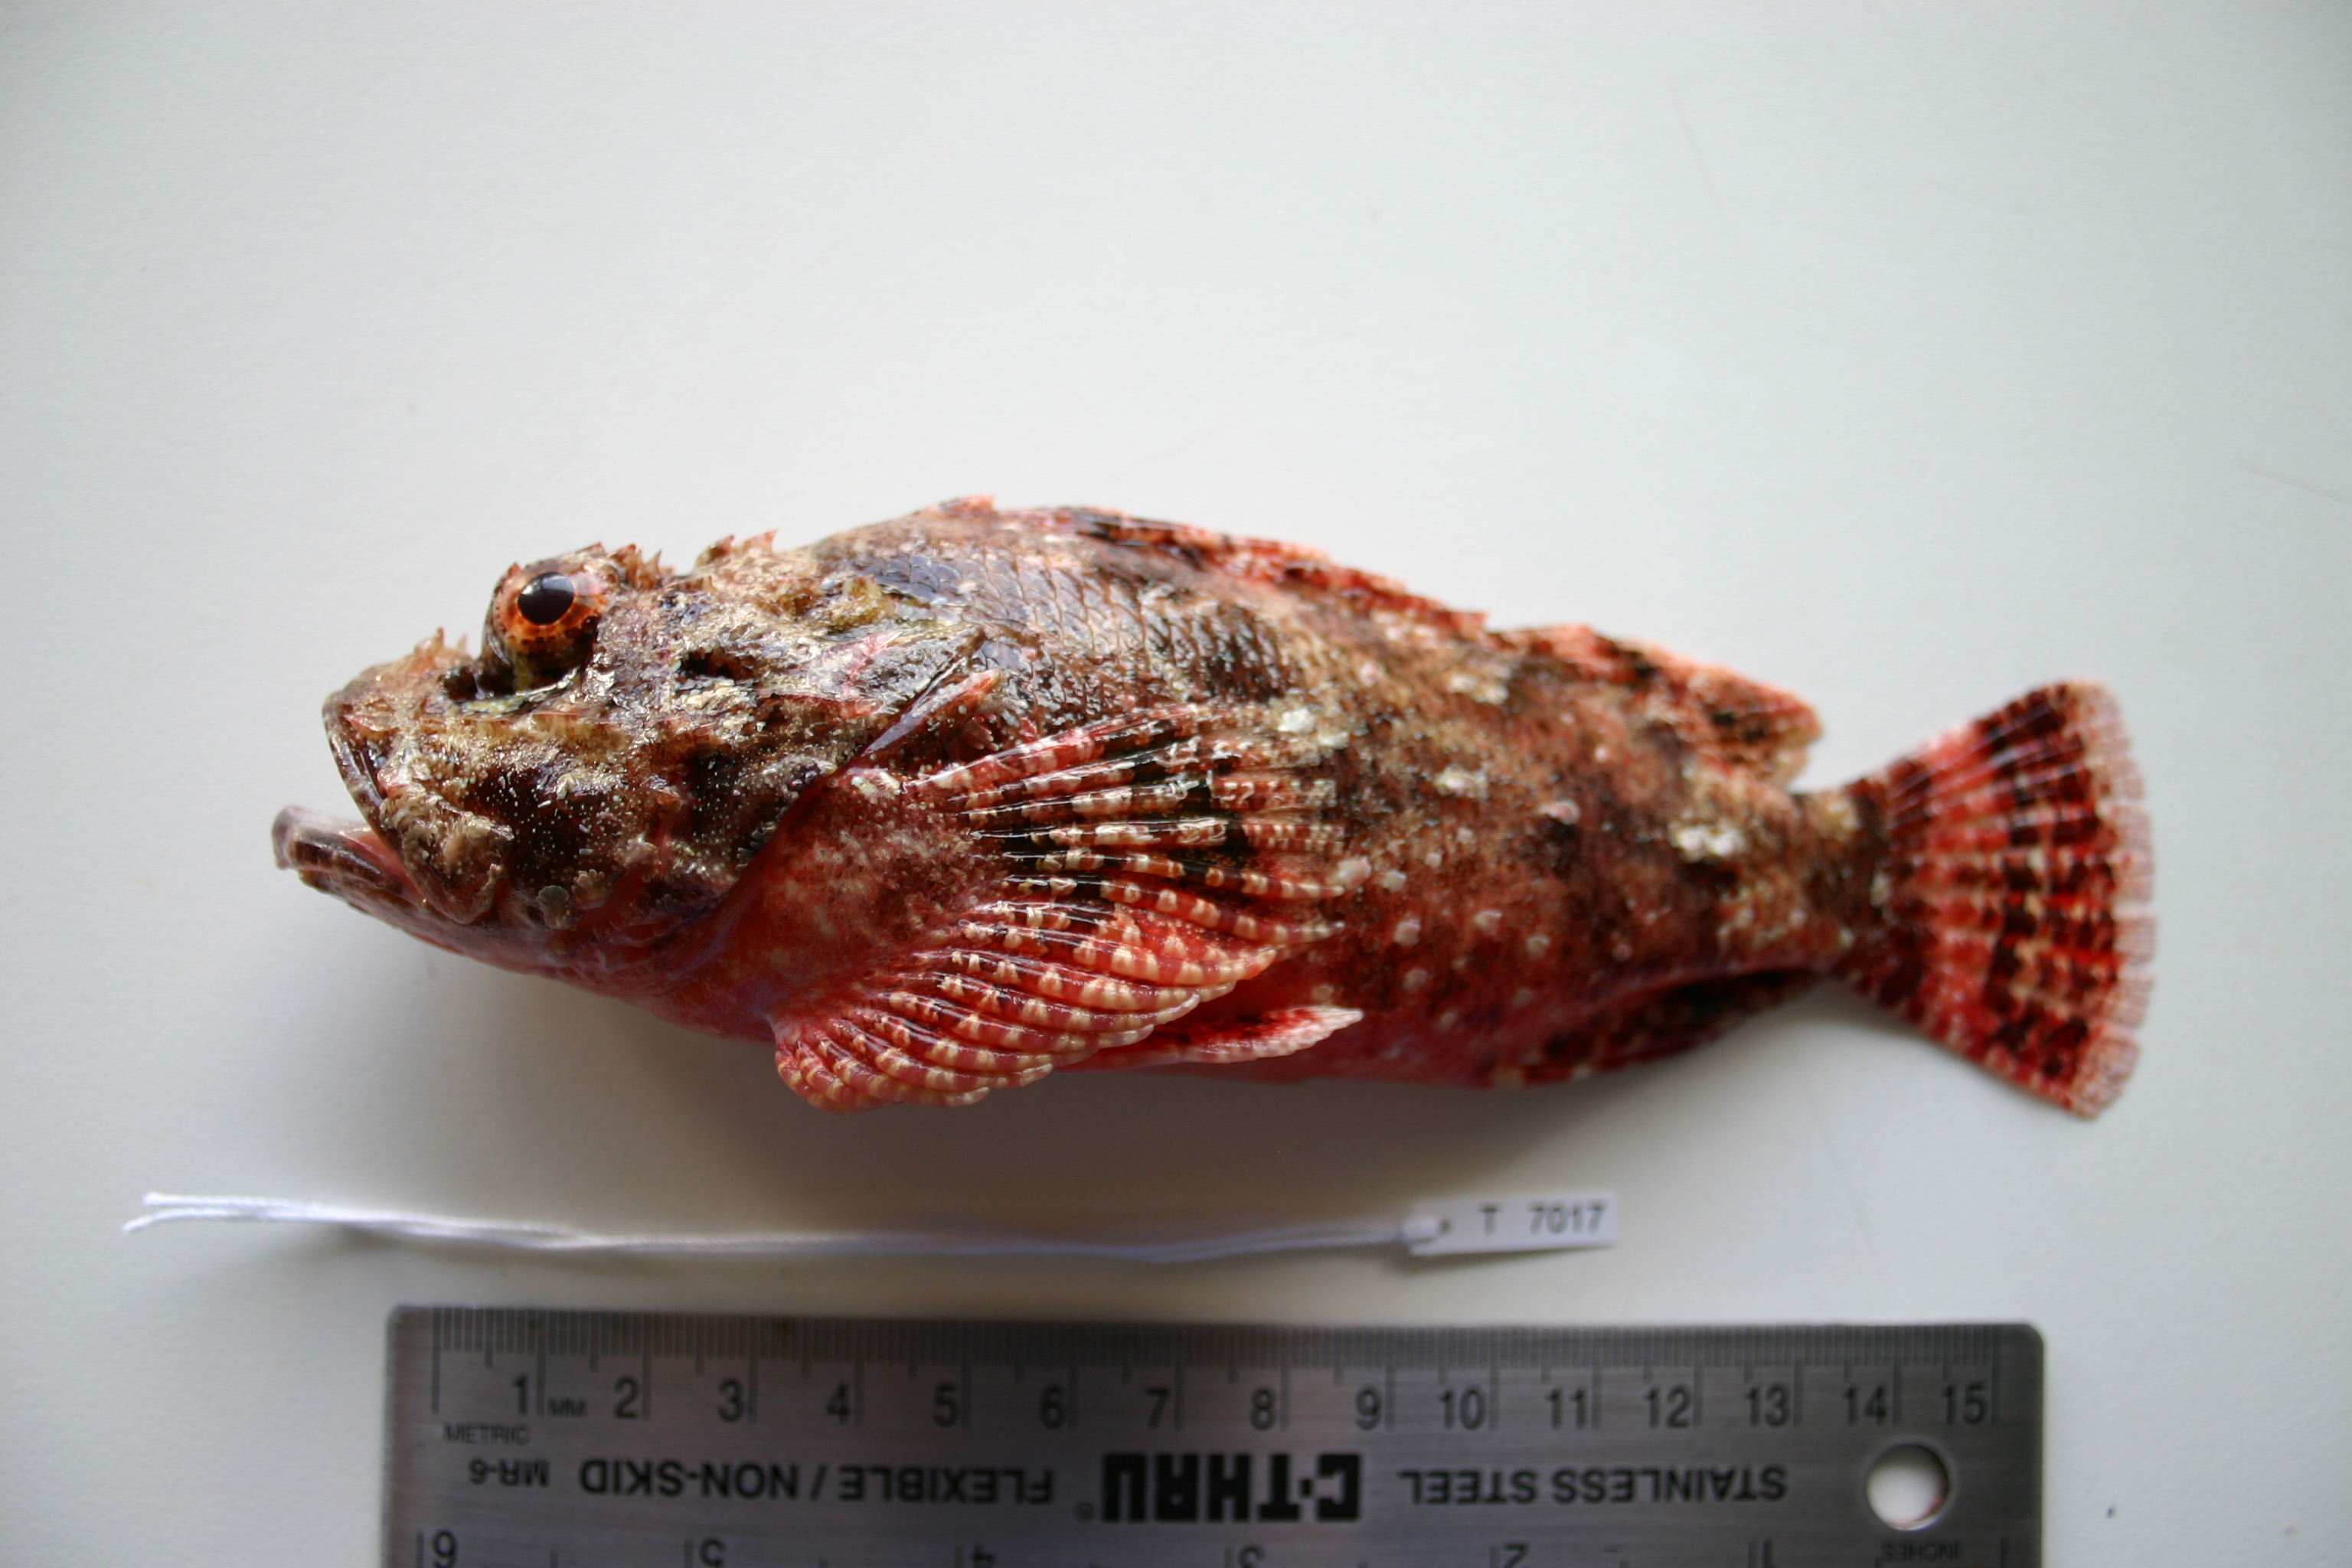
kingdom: Animalia
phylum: Chordata
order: Scorpaeniformes
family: Scorpaenidae
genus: Scorpaenopsis
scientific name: Scorpaenopsis possi
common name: Poss's scorpionfish
